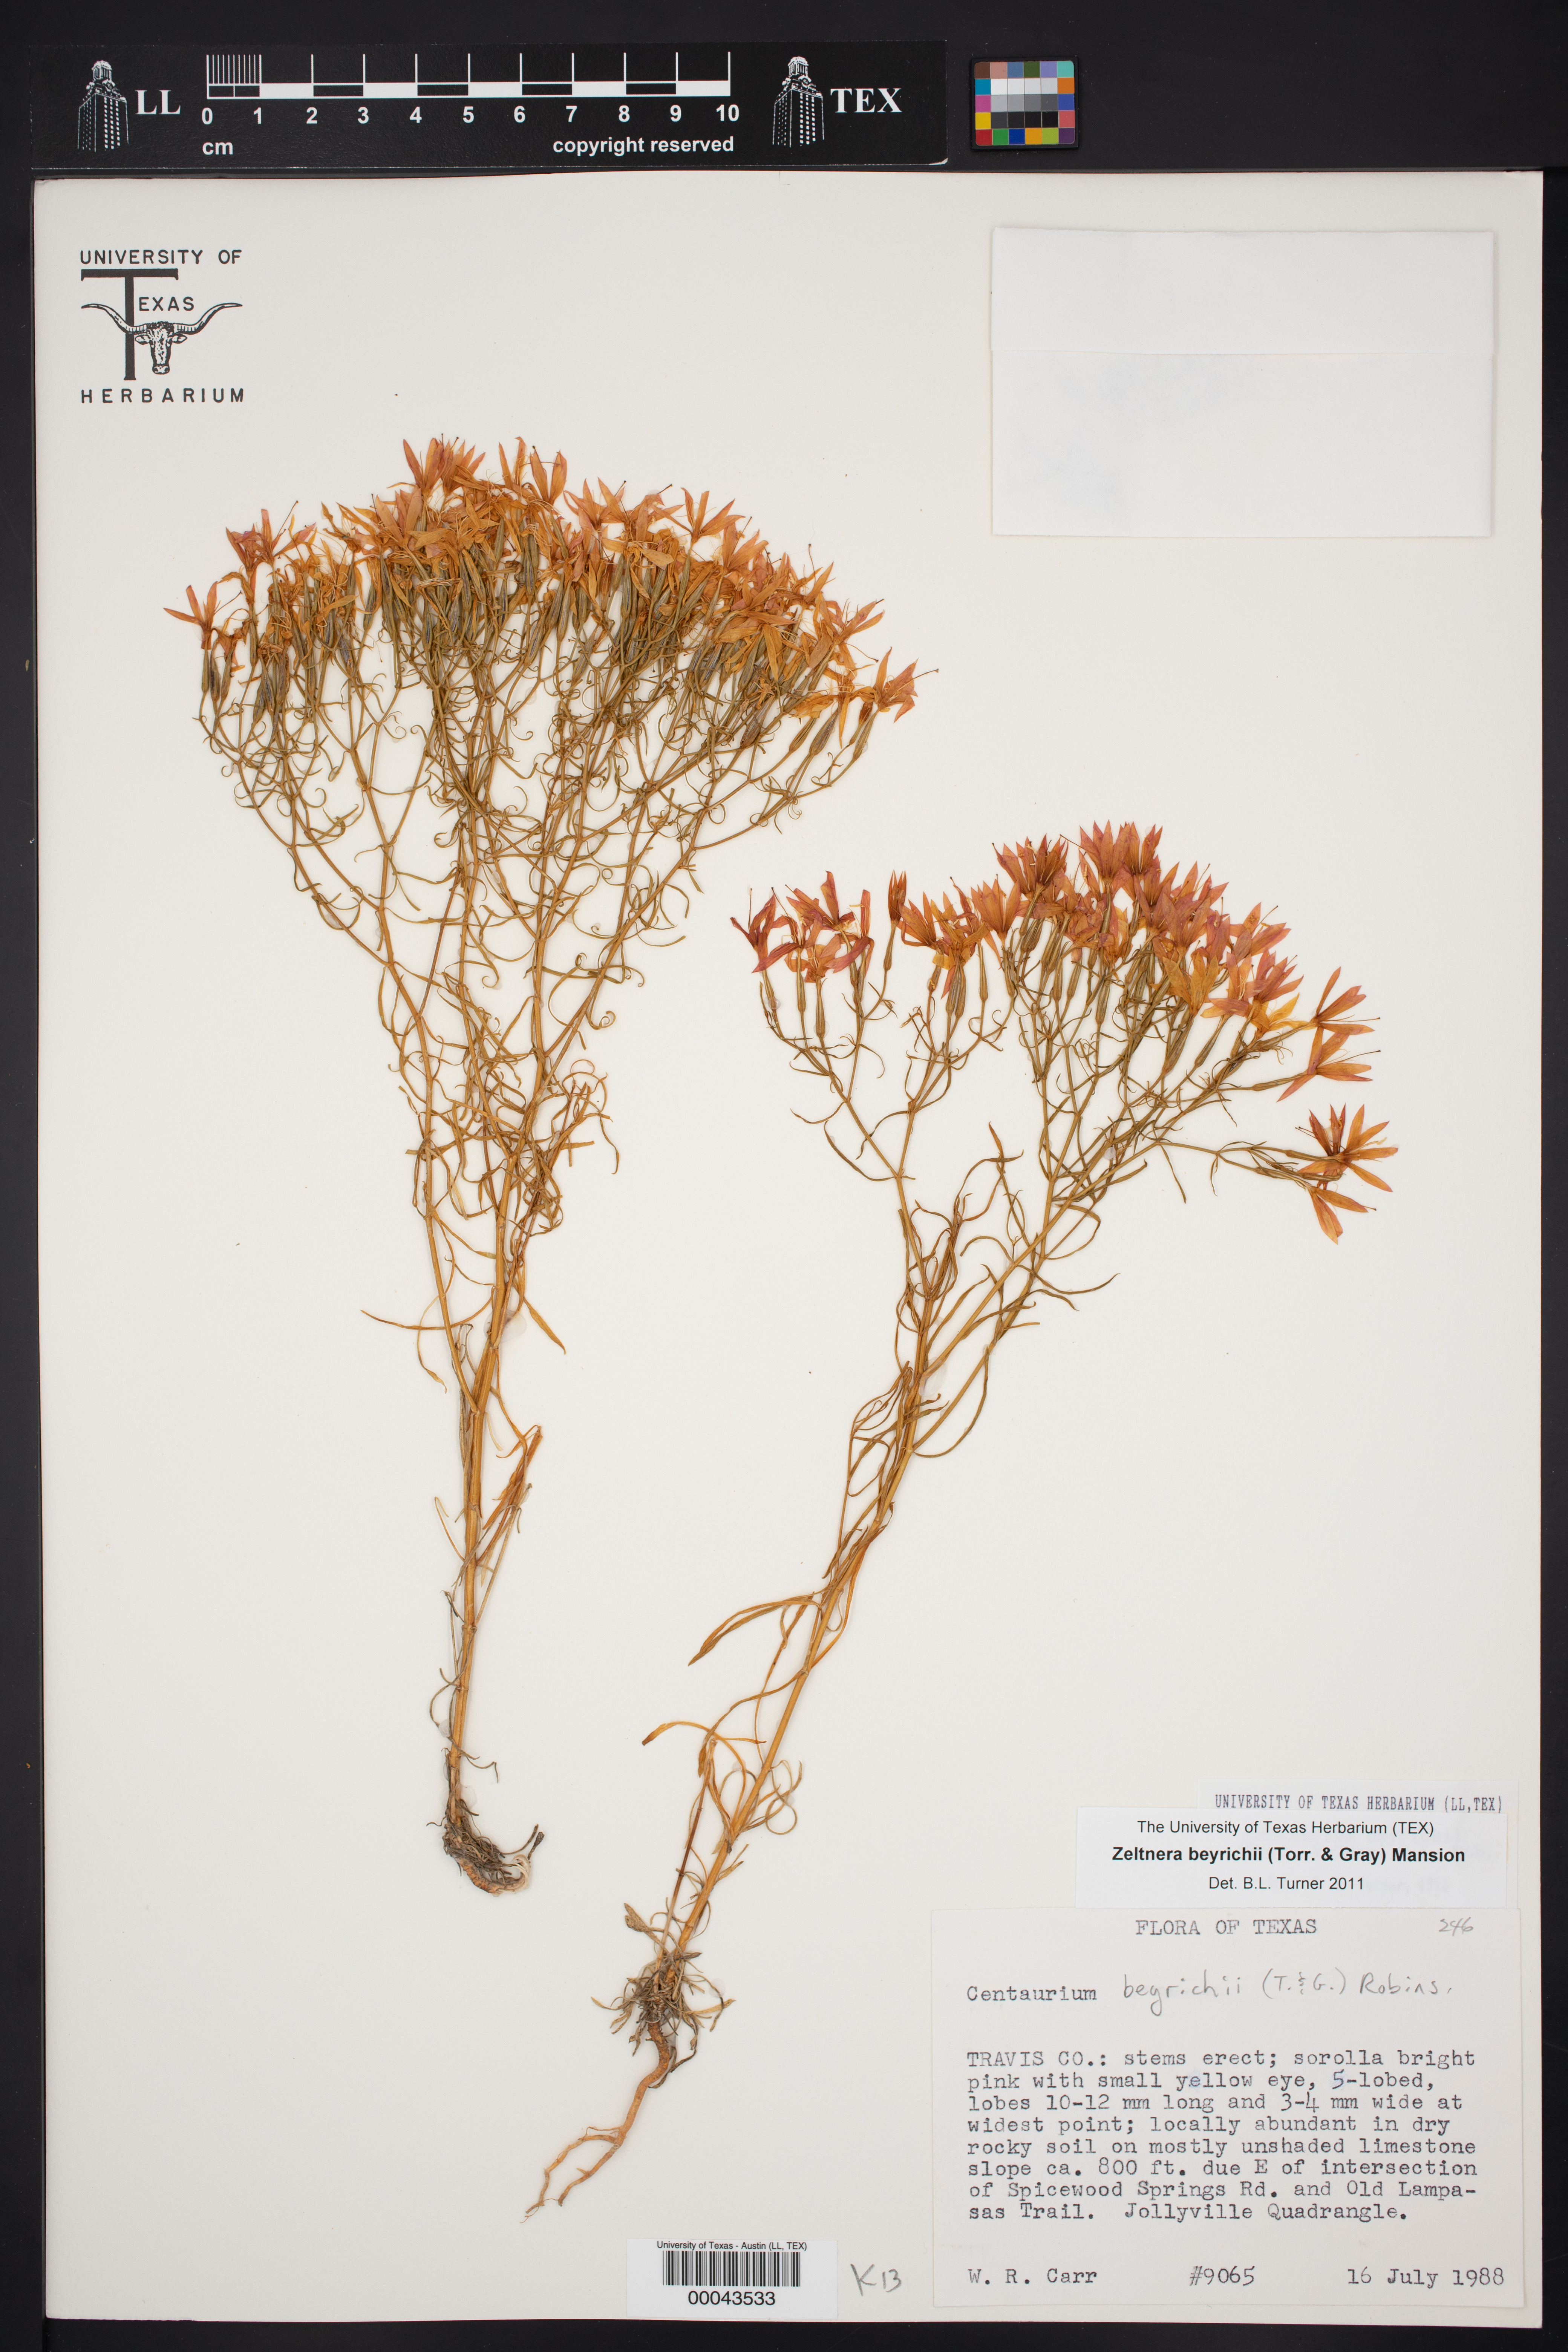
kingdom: Plantae
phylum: Tracheophyta
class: Magnoliopsida
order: Gentianales
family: Gentianaceae
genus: Zeltnera
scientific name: Zeltnera beyrichii
